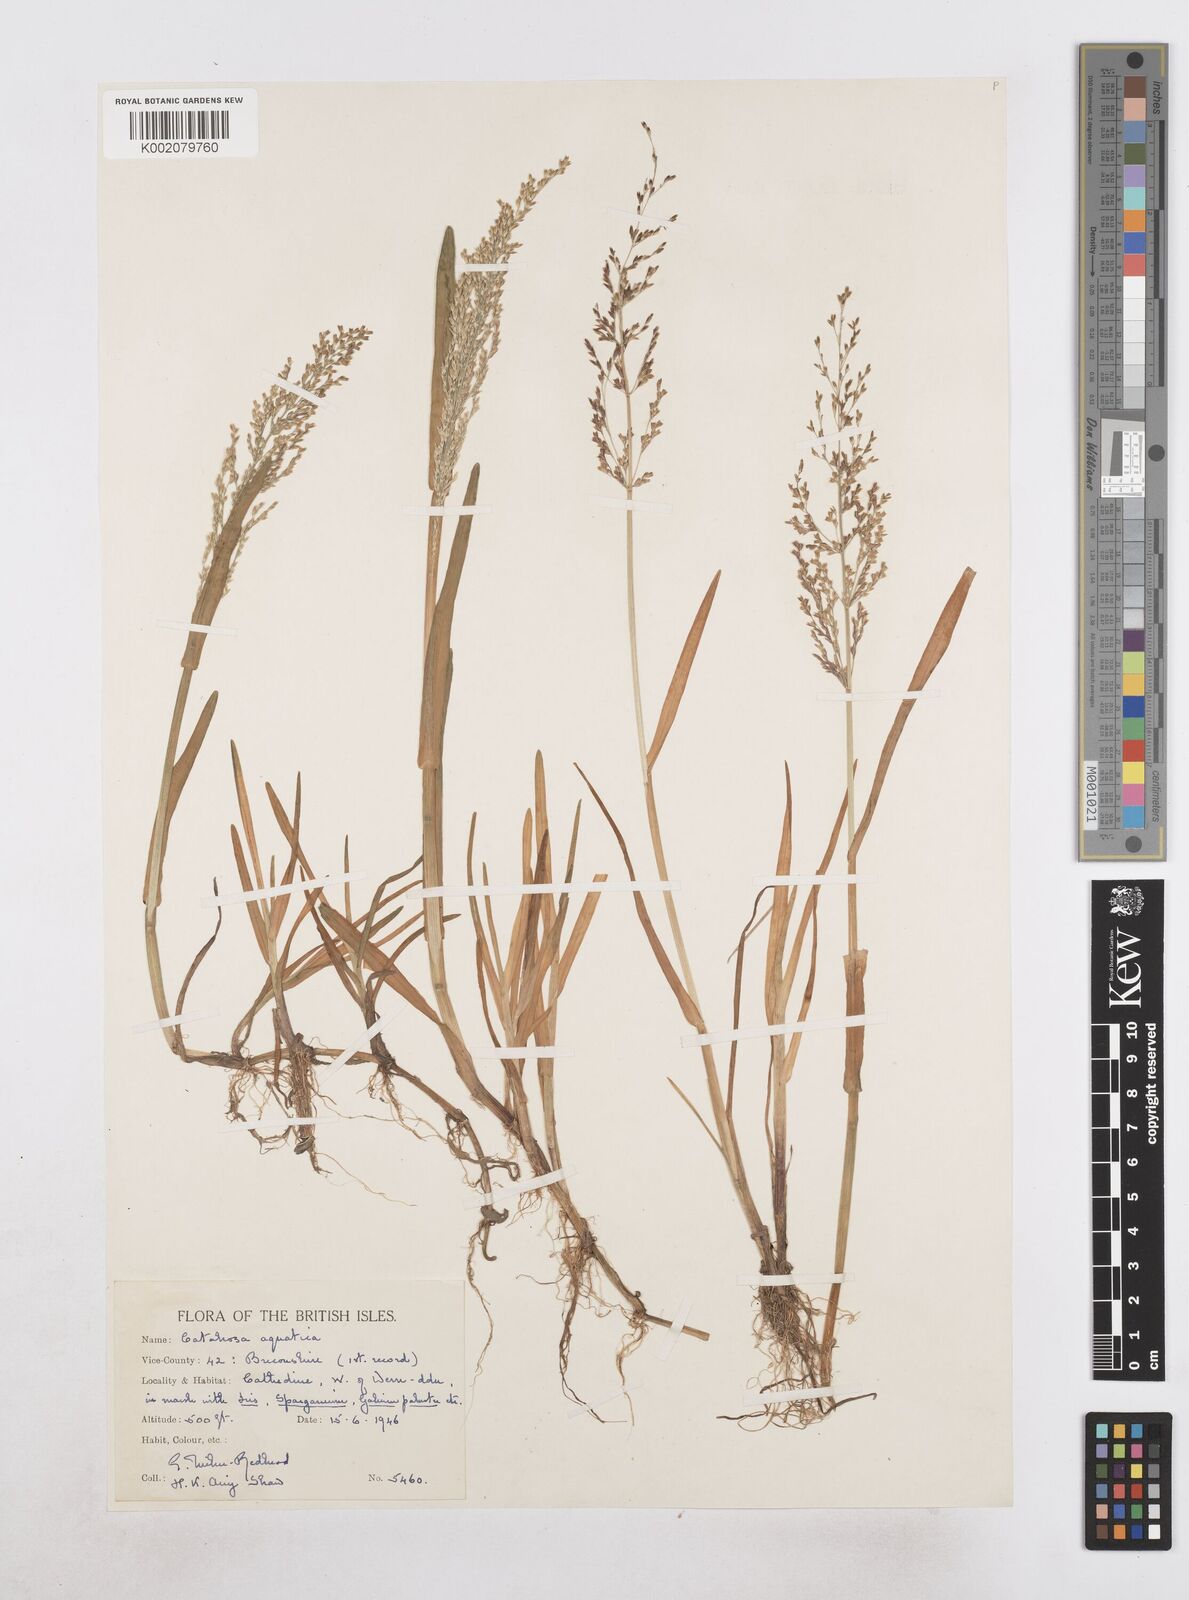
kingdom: Plantae
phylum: Tracheophyta
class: Liliopsida
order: Poales
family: Poaceae
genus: Catabrosa
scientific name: Catabrosa aquatica
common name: Whorl-grass
